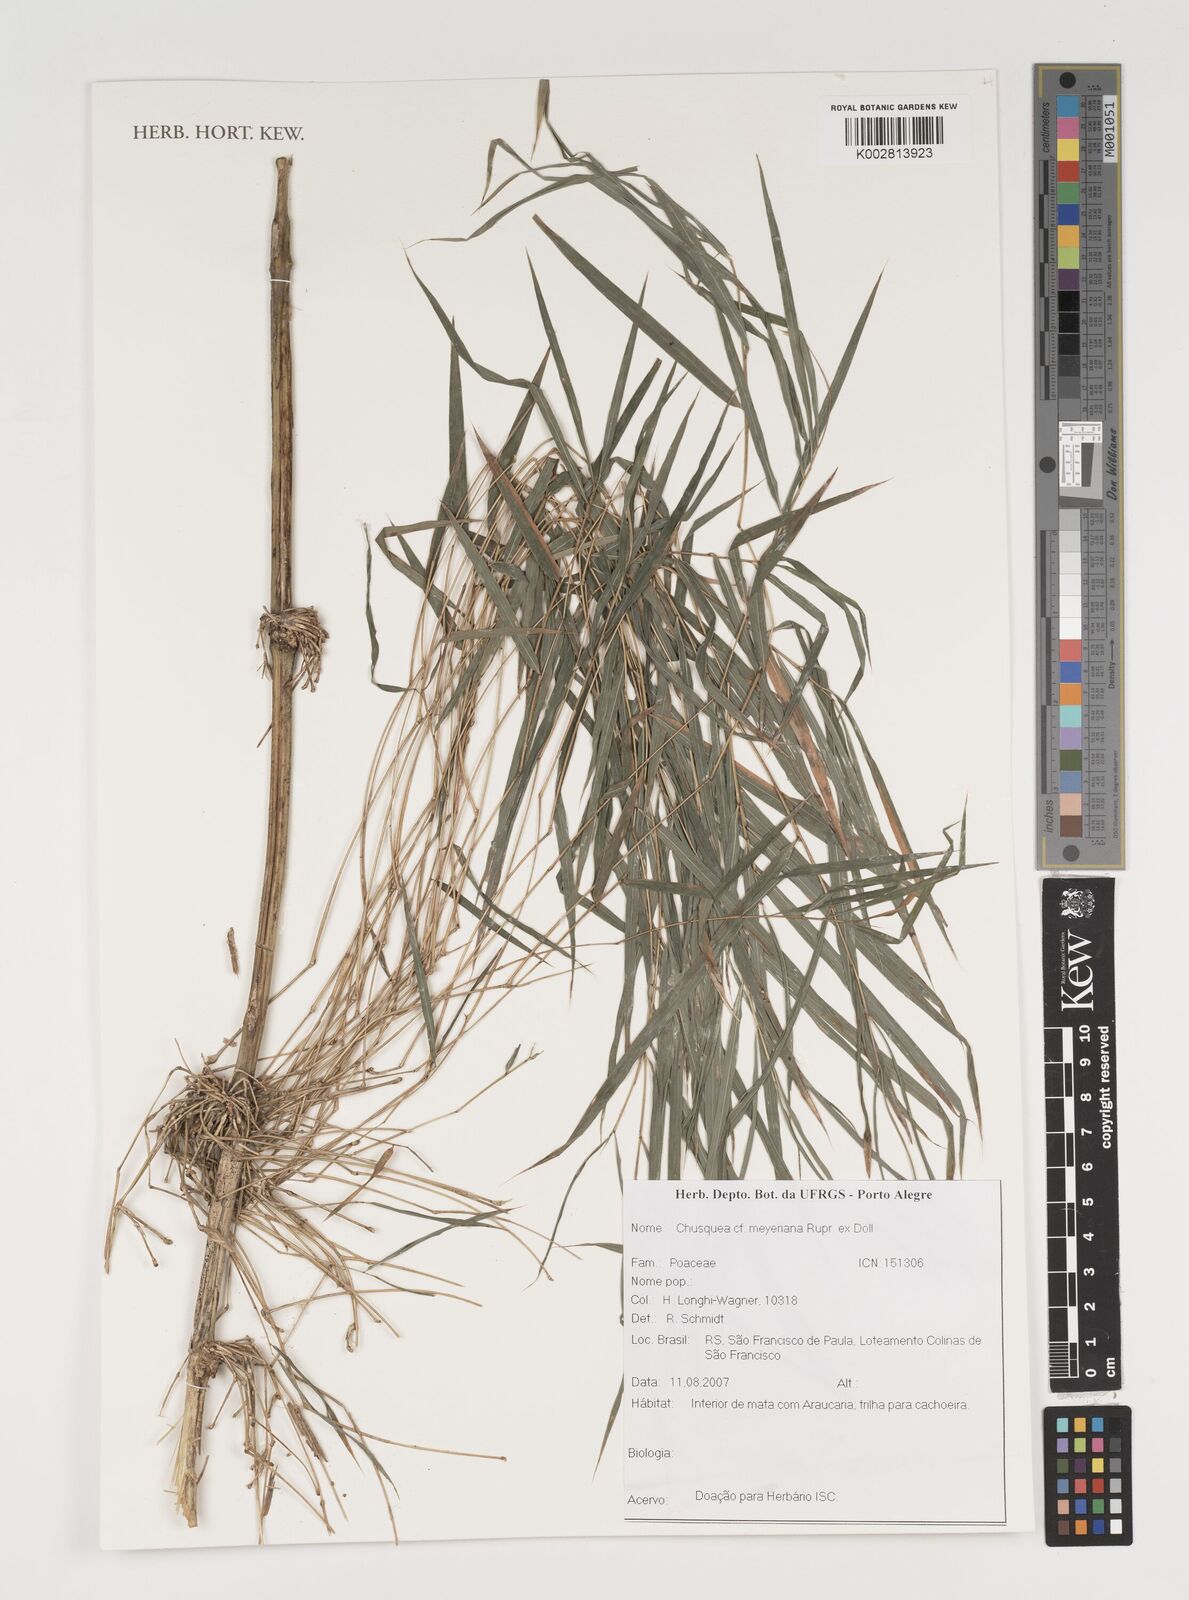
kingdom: Plantae
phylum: Tracheophyta
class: Liliopsida
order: Poales
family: Poaceae
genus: Chusquea
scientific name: Chusquea meyeriana
